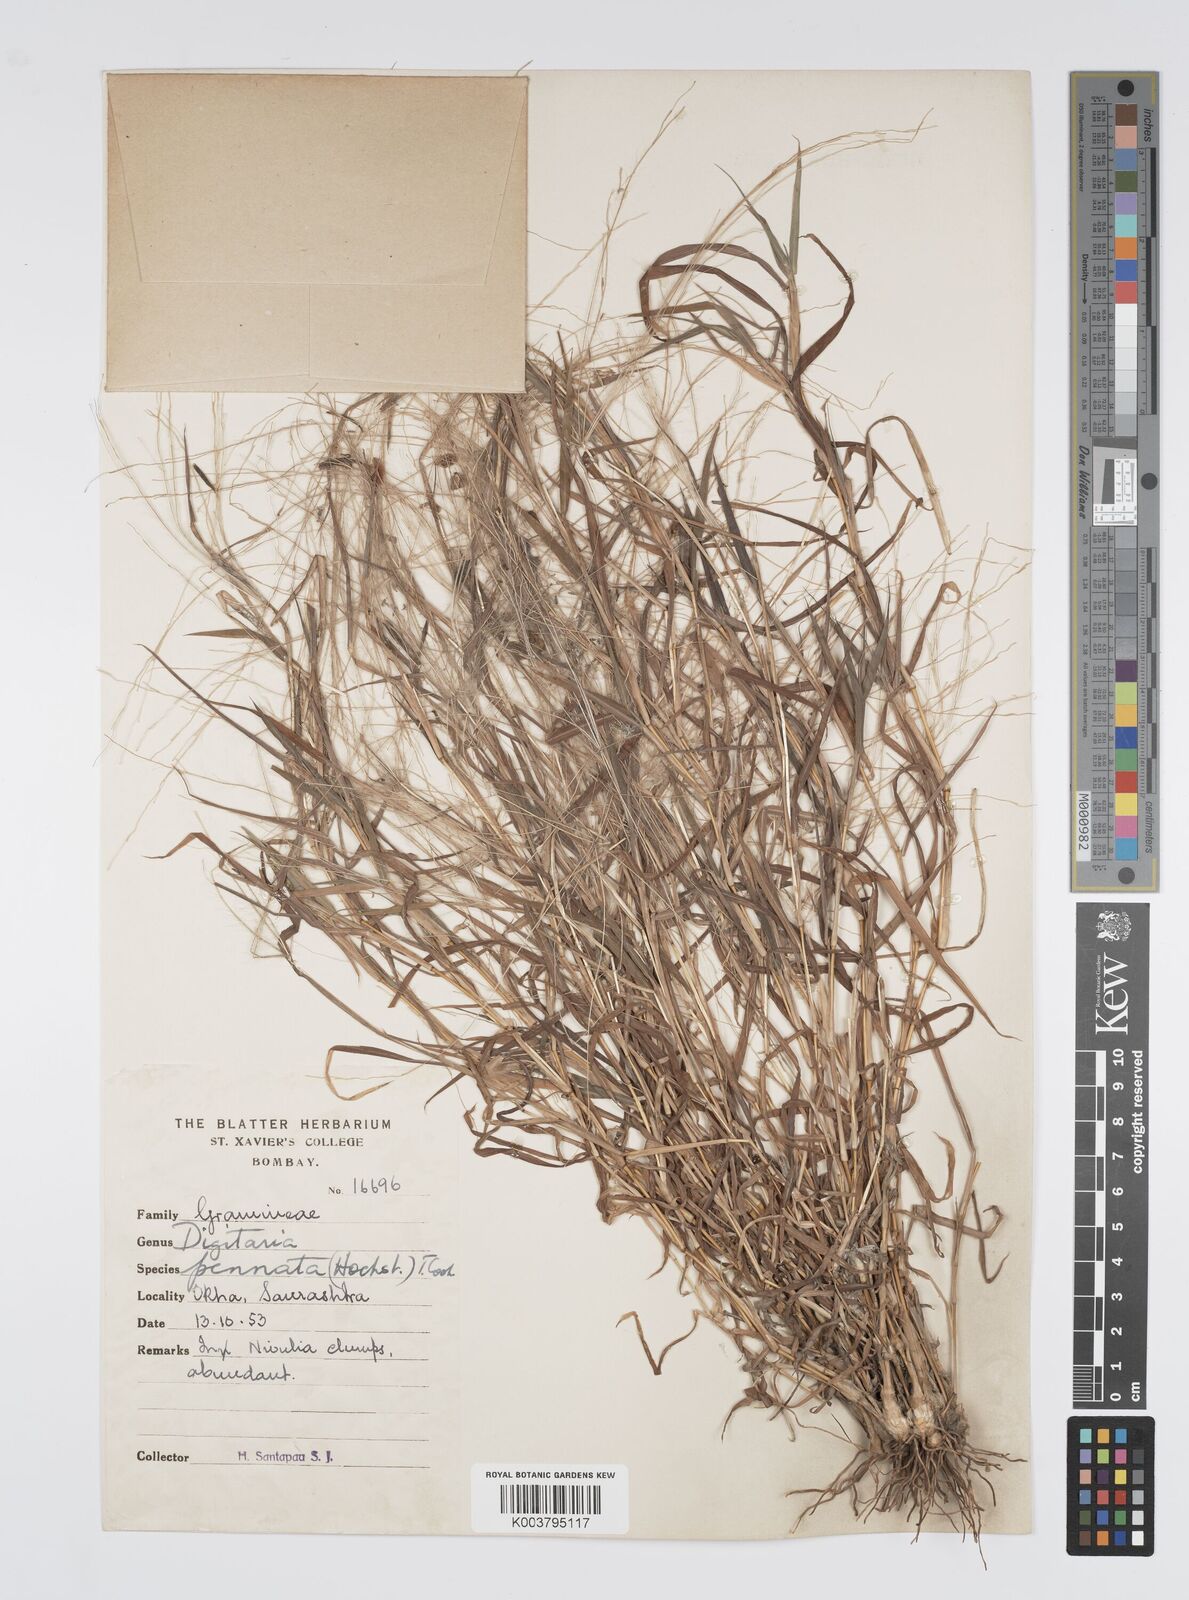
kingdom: Plantae
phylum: Tracheophyta
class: Liliopsida
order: Poales
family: Poaceae
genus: Digitaria
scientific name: Digitaria pennata
